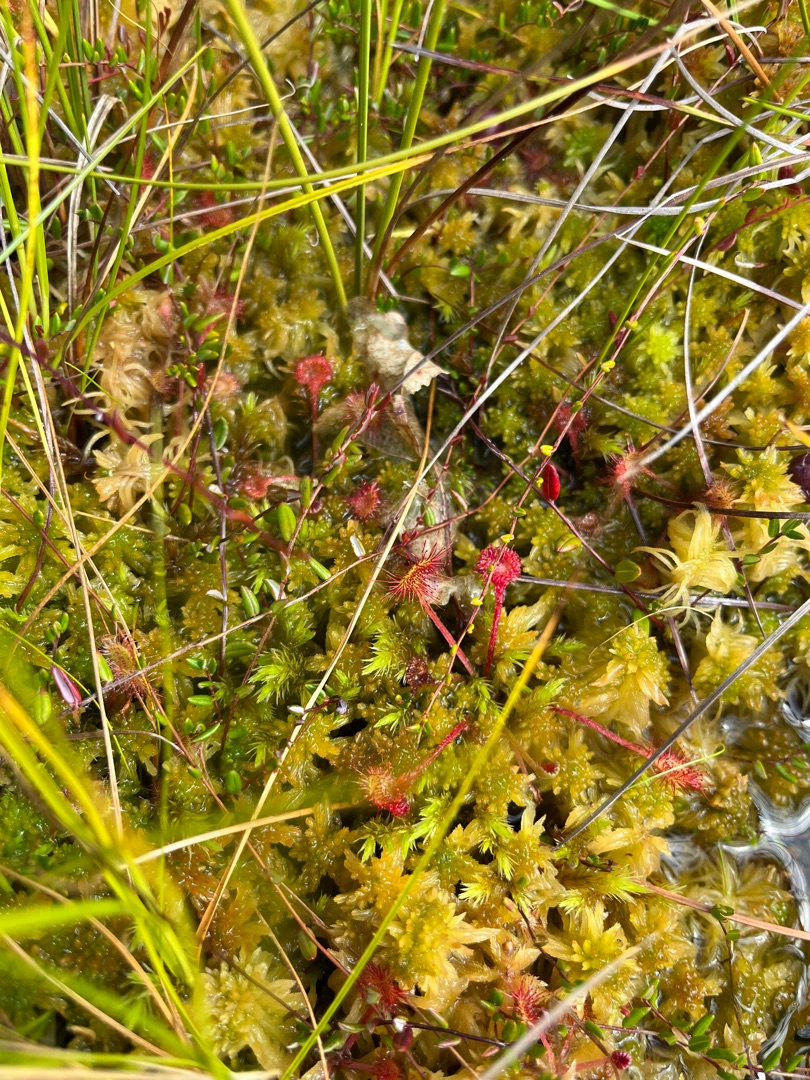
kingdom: Plantae
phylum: Tracheophyta
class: Magnoliopsida
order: Caryophyllales
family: Droseraceae
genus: Drosera
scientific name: Drosera rotundifolia
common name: Rundbladet soldug
